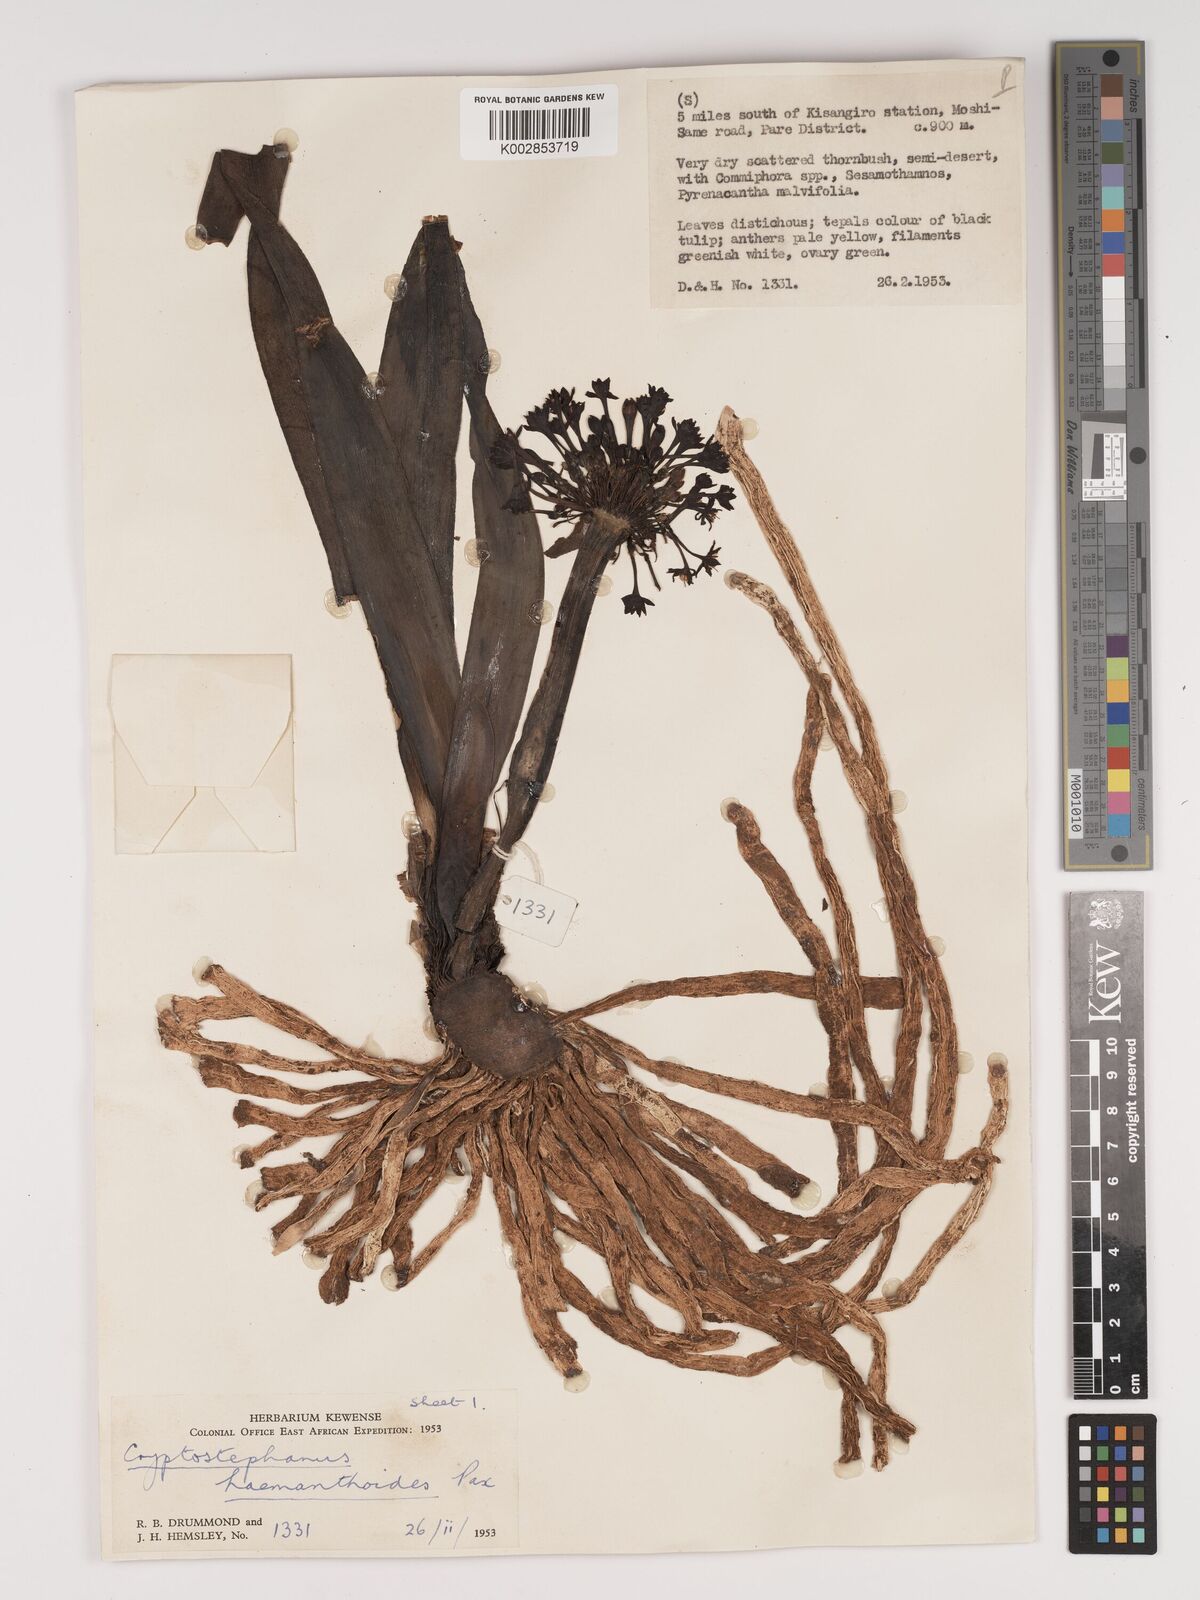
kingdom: Plantae
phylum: Tracheophyta
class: Liliopsida
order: Asparagales
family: Amaryllidaceae
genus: Cryptostephanus
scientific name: Cryptostephanus haemanthoides
